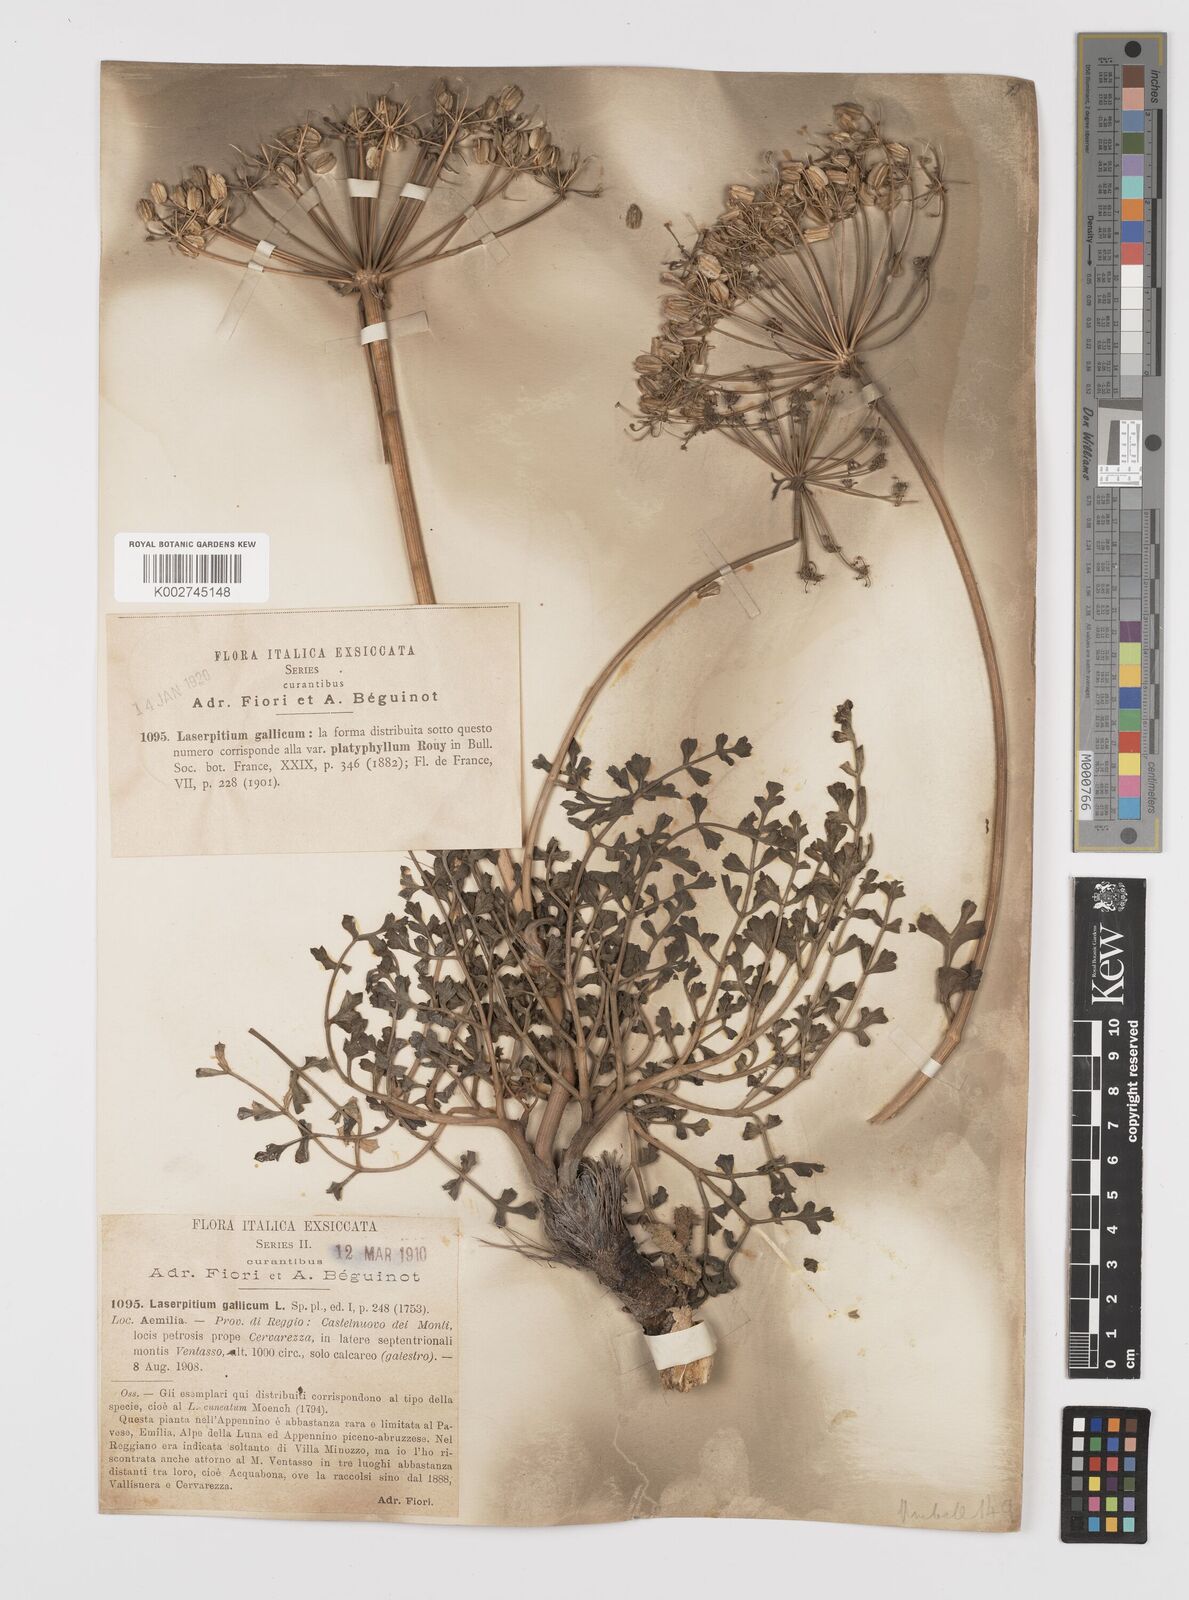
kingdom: Plantae
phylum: Tracheophyta
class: Magnoliopsida
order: Apiales
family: Apiaceae
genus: Laserpitium
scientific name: Laserpitium gallicum
